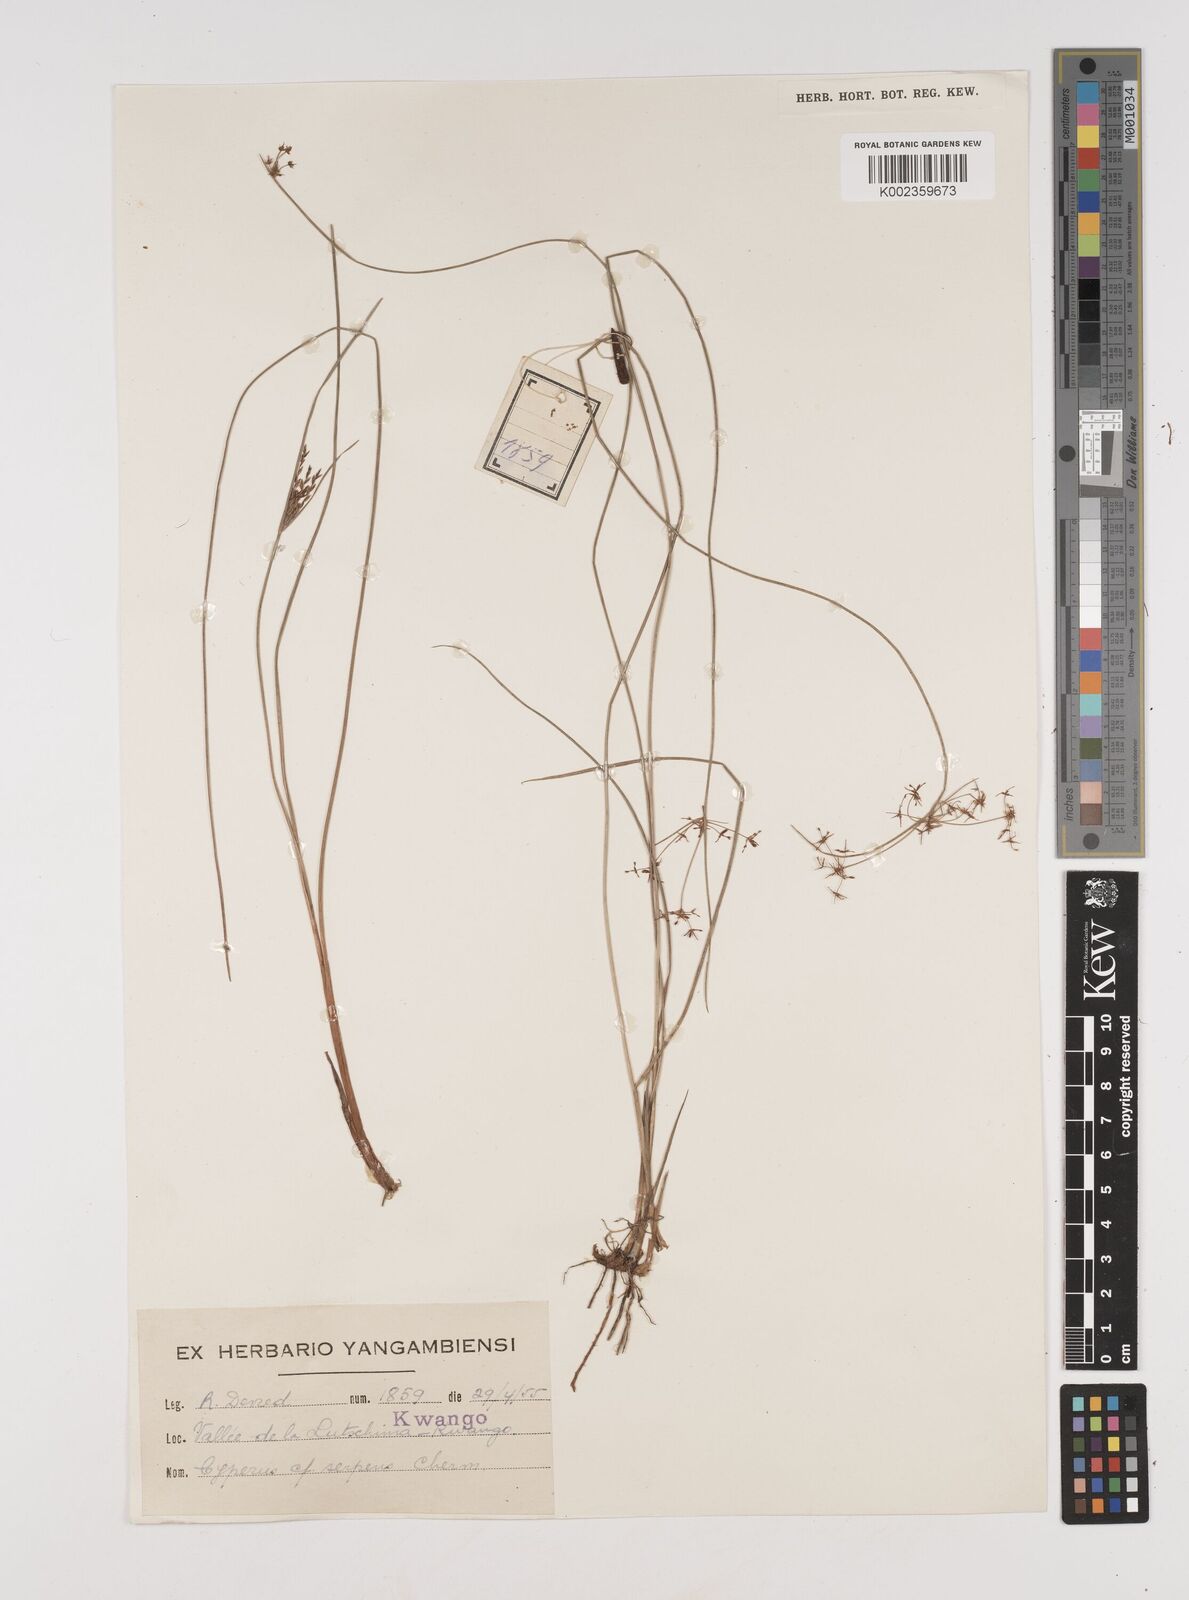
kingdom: Plantae
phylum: Tracheophyta
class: Liliopsida
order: Poales
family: Cyperaceae
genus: Cyperus
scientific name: Cyperus
